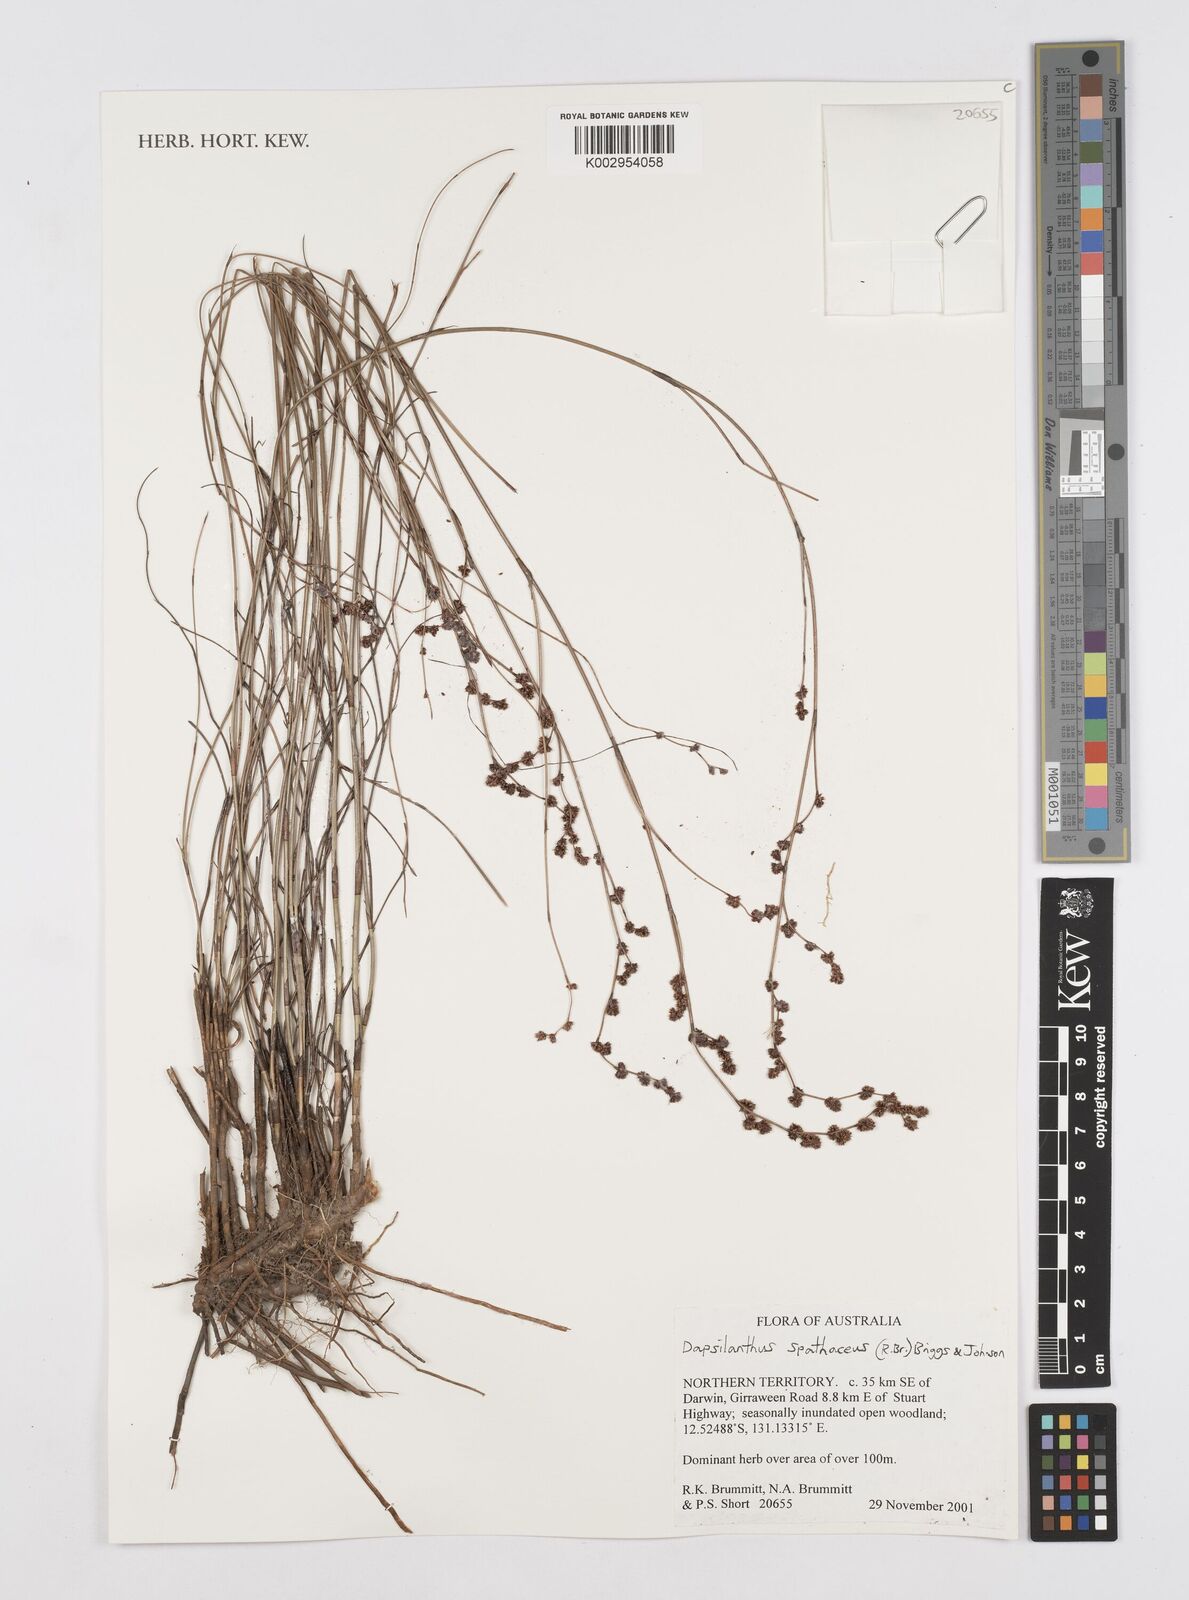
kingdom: Plantae
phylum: Tracheophyta
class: Liliopsida
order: Poales
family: Restionaceae
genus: Dapsilanthus
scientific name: Dapsilanthus spathaceus
